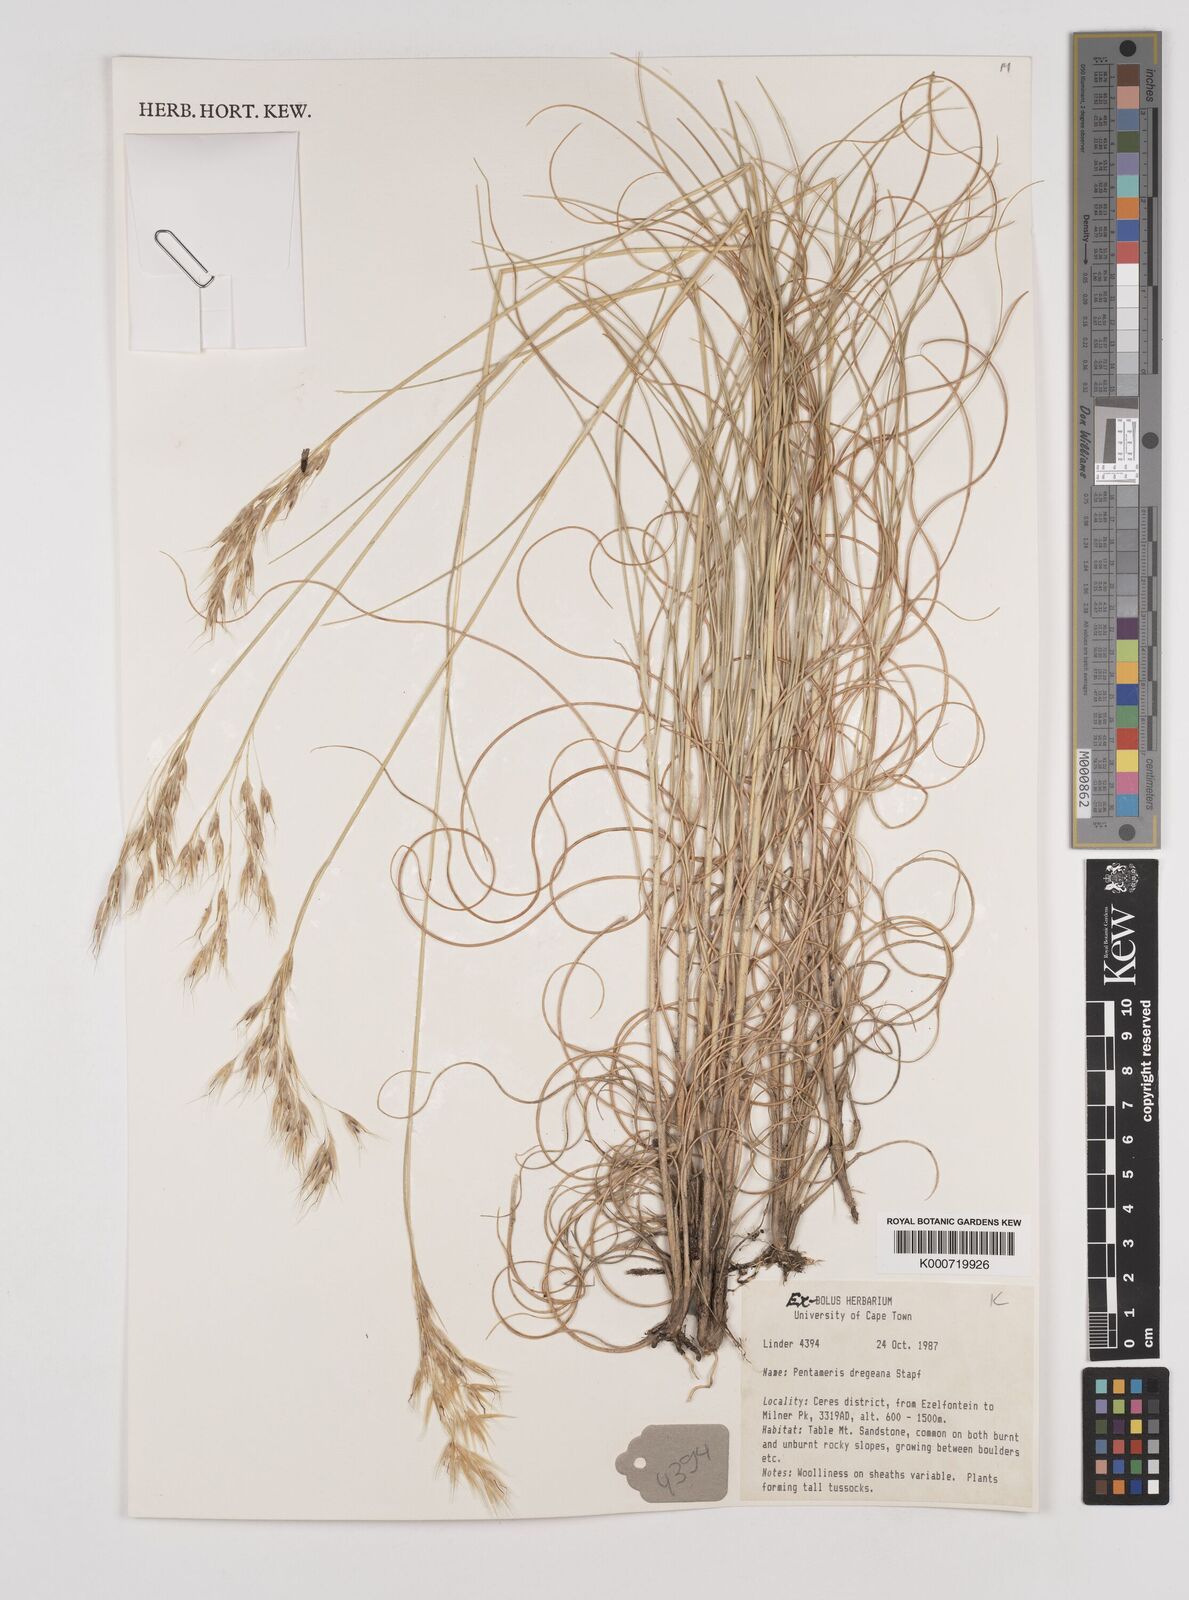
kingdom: Plantae
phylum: Tracheophyta
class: Liliopsida
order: Poales
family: Poaceae
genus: Pentameris
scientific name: Pentameris dregeana
